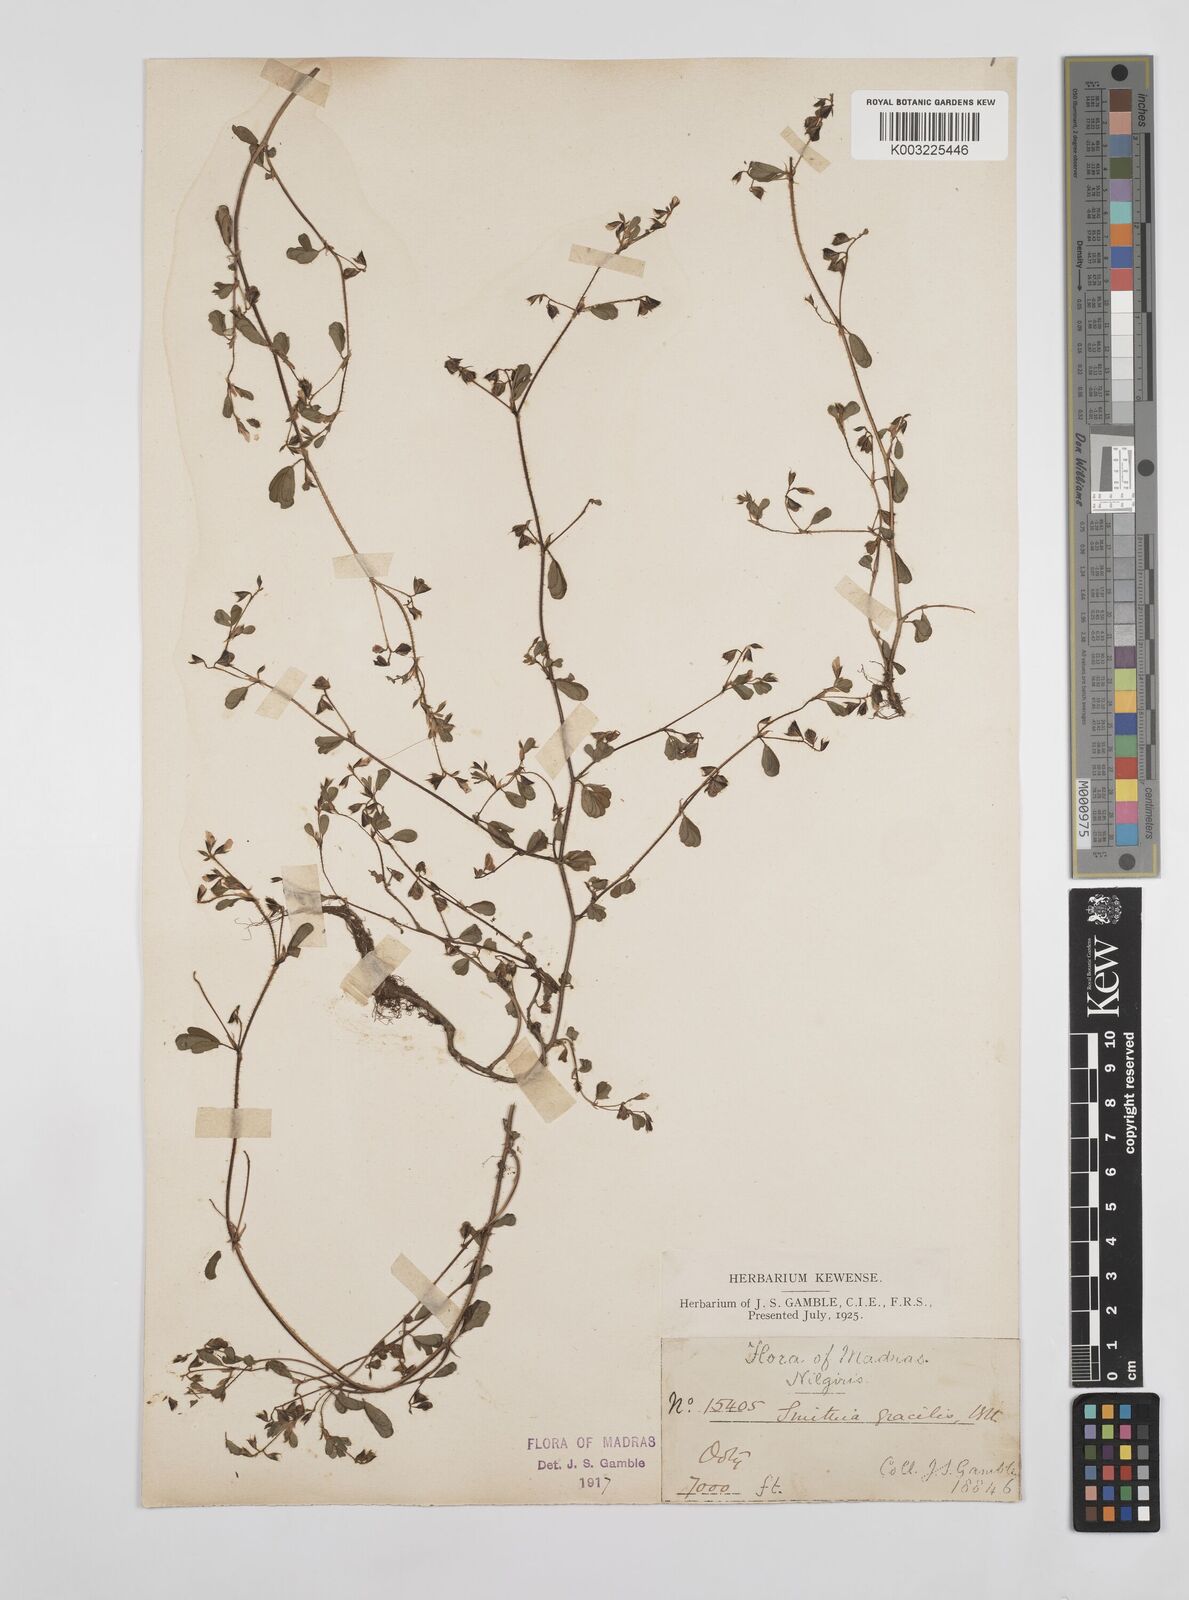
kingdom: Plantae
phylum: Tracheophyta
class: Magnoliopsida
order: Fabales
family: Fabaceae
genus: Smithia
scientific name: Smithia gracilis
